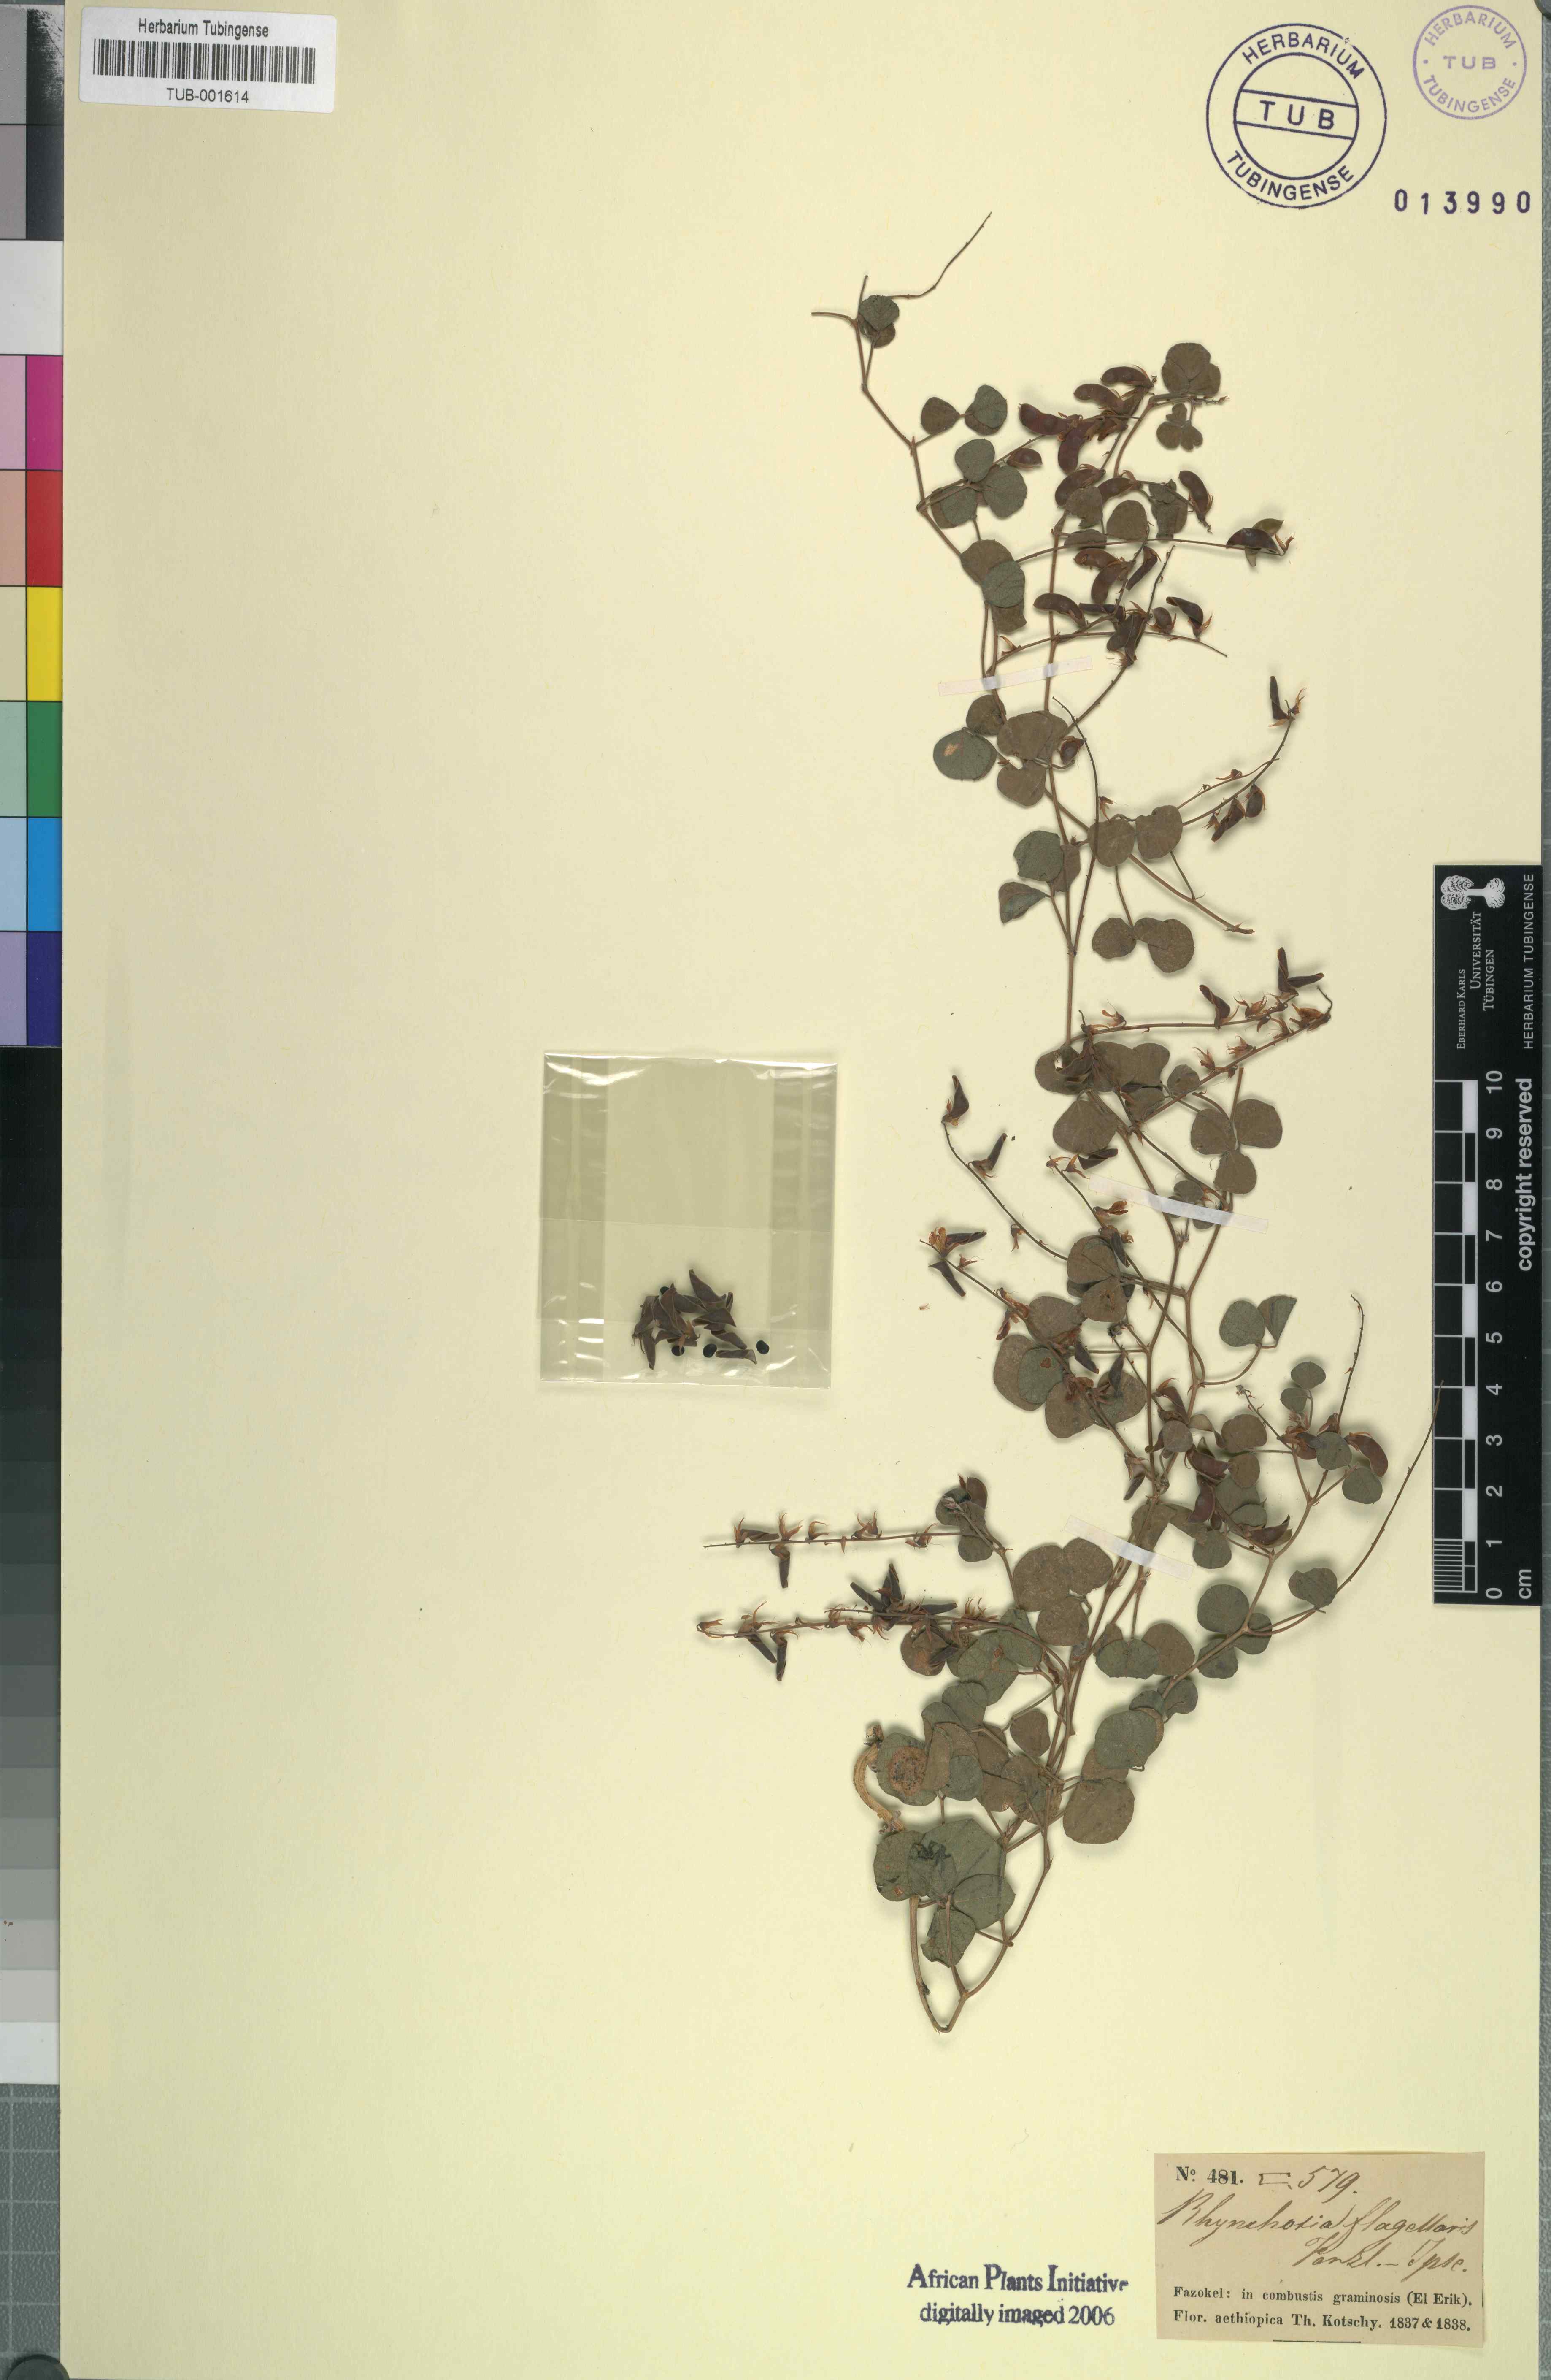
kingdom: Plantae
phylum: Tracheophyta
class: Magnoliopsida
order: Fabales
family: Fabaceae
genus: Rhynchosia
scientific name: Rhynchosia minima
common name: Least snoutbean
